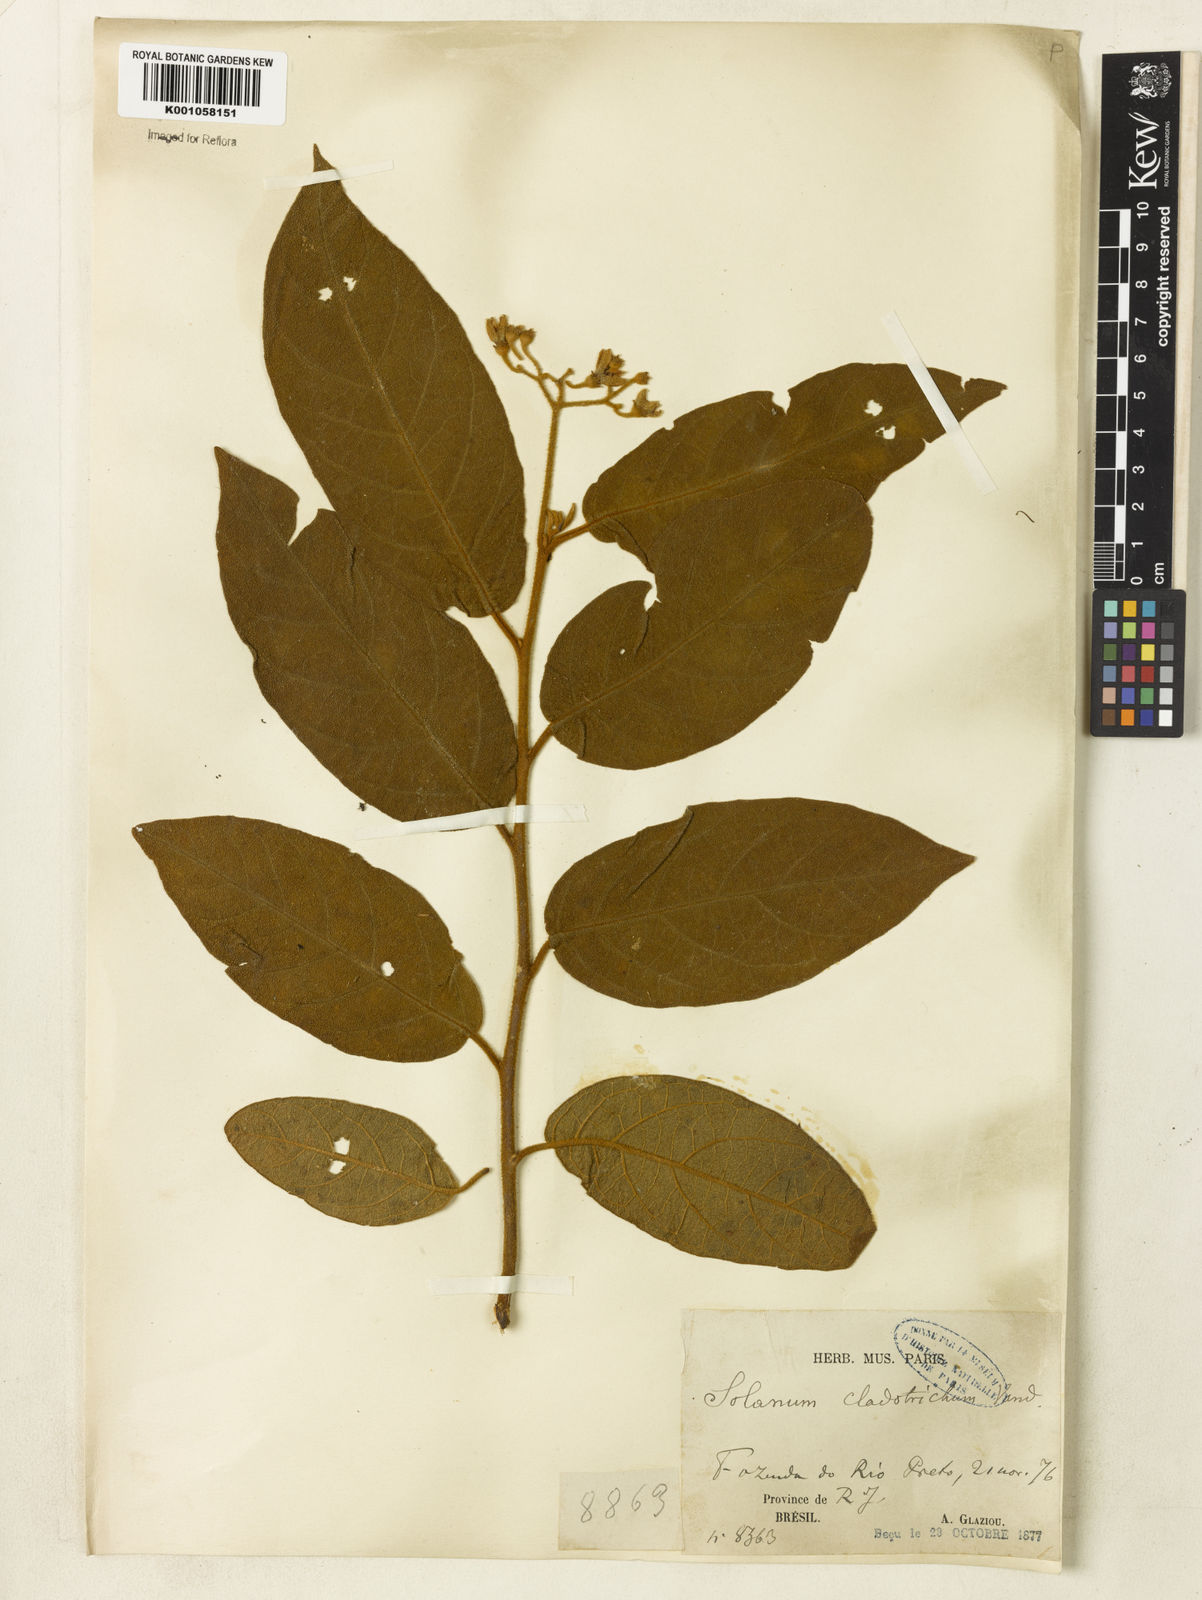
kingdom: Plantae
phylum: Tracheophyta
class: Magnoliopsida
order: Solanales
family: Solanaceae
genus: Solanum
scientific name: Solanum jussiaei
